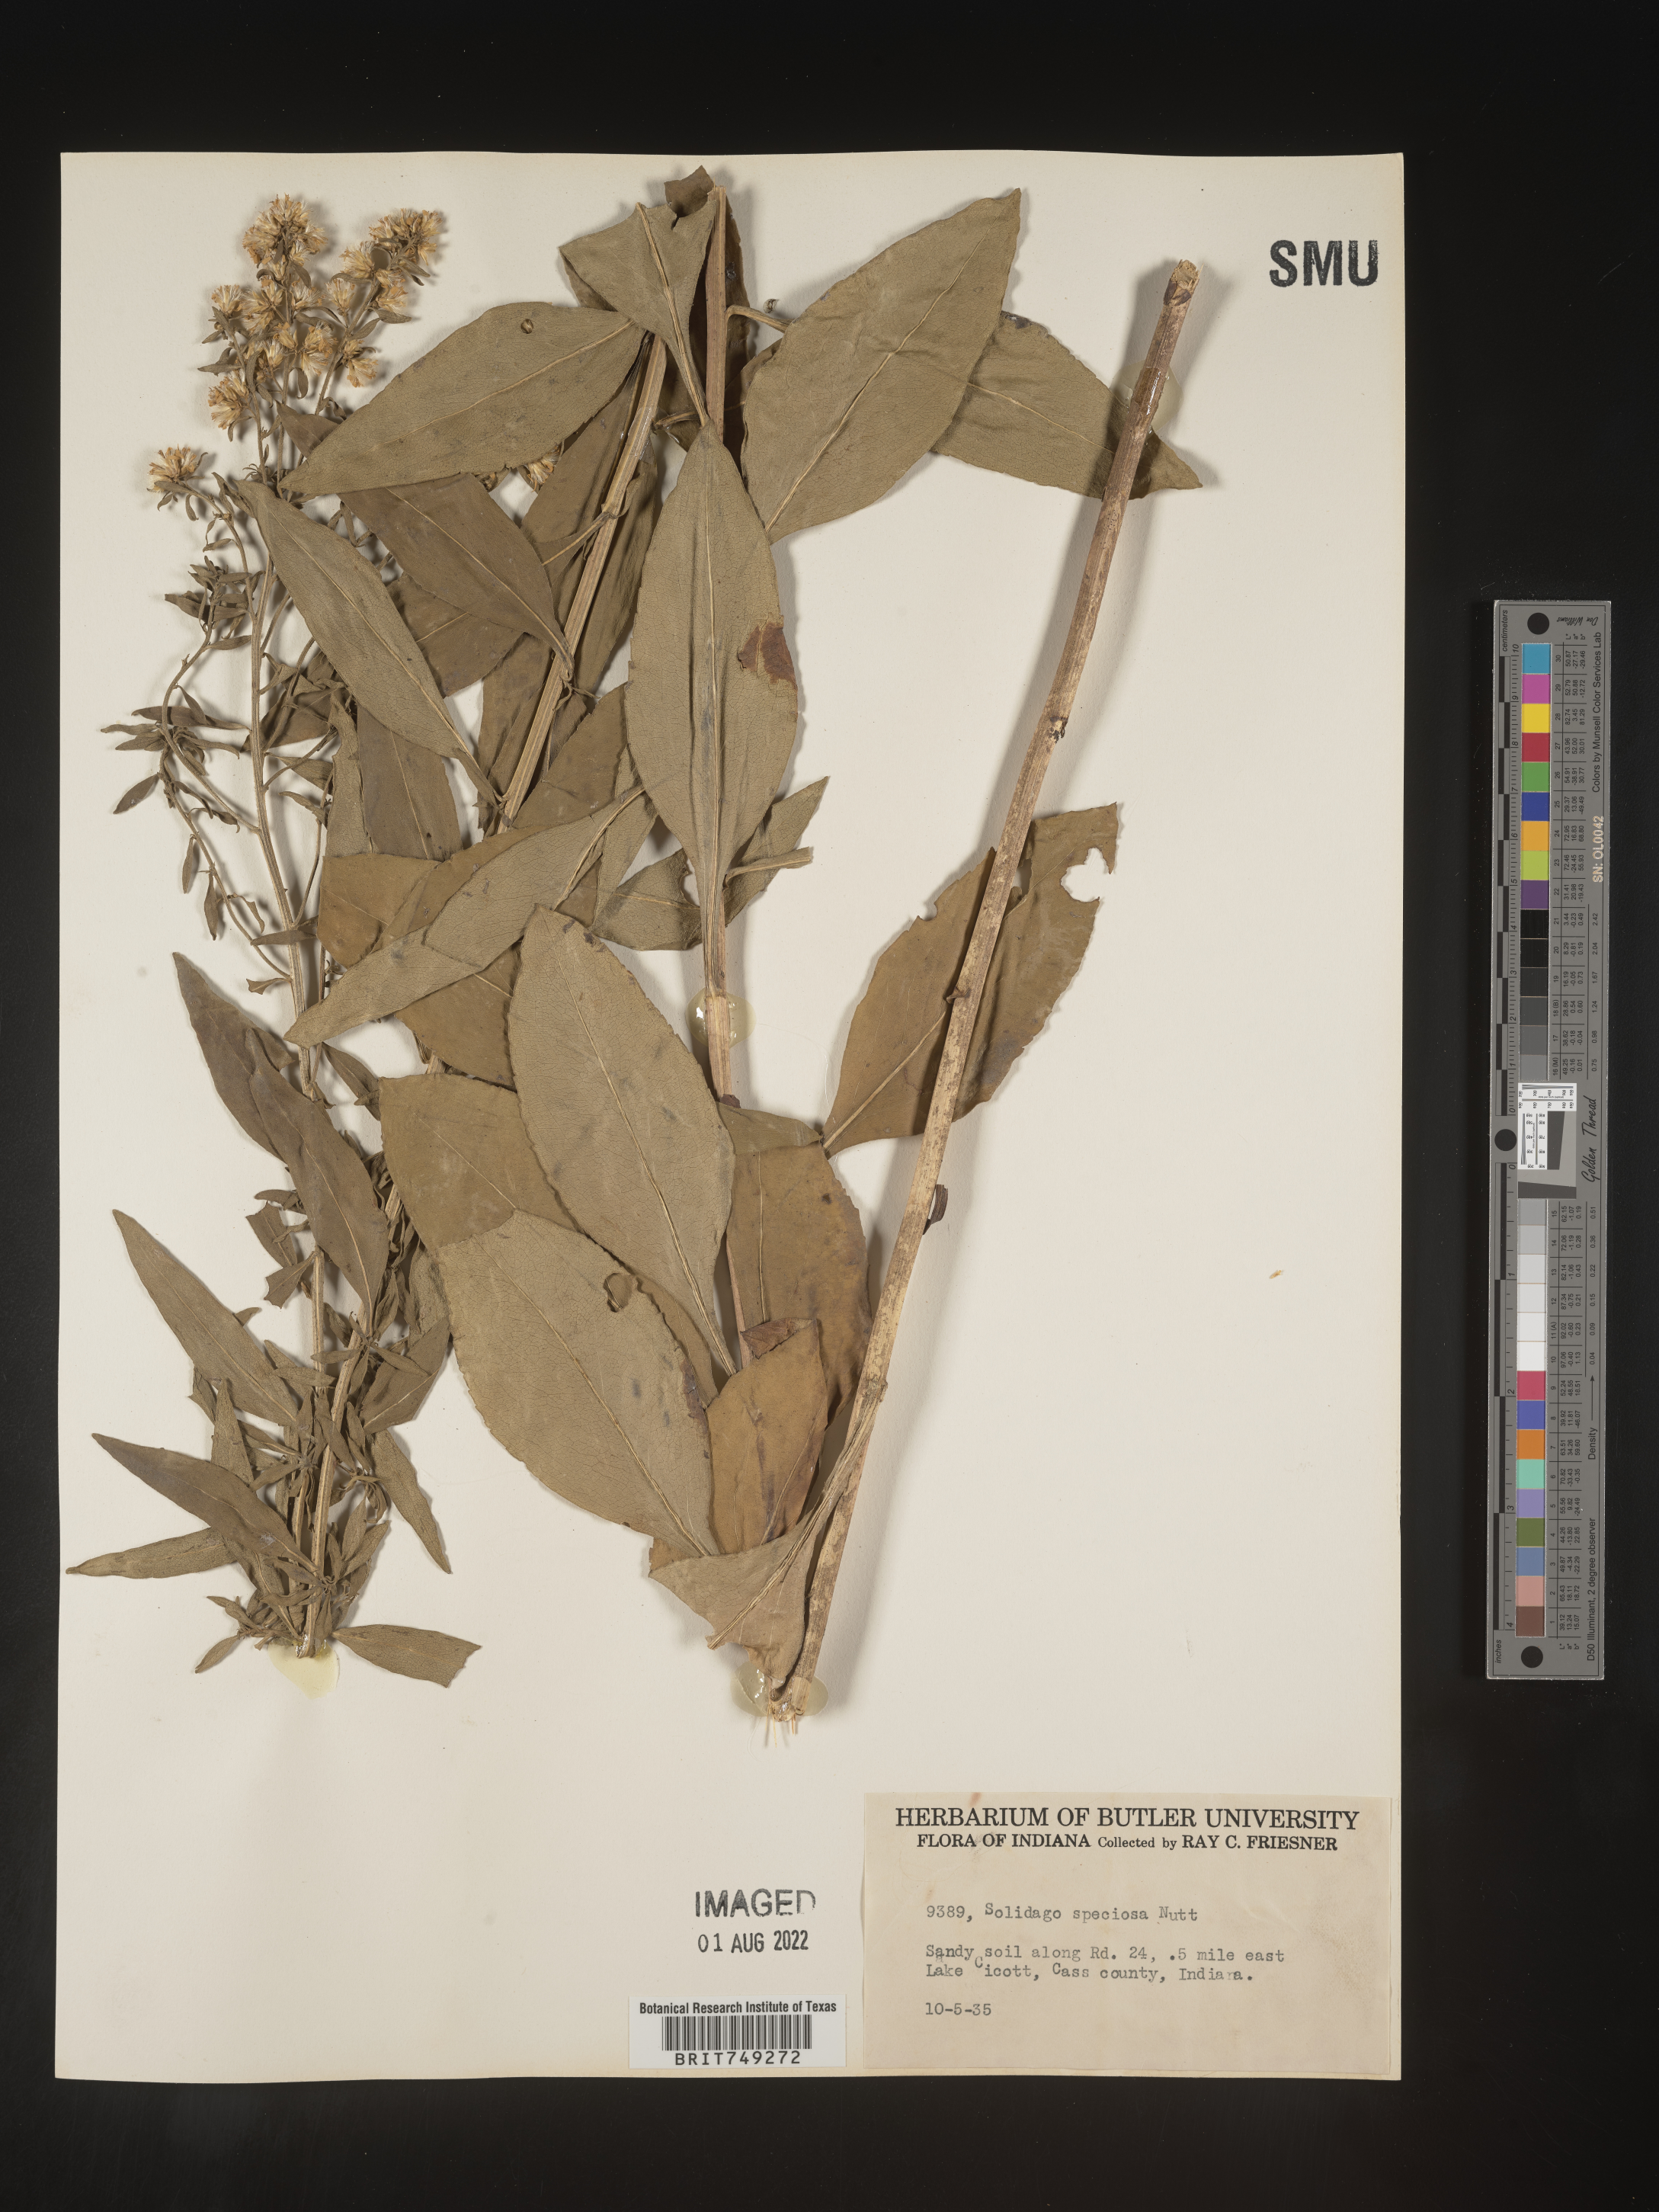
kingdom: Plantae
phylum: Tracheophyta
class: Magnoliopsida
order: Asterales
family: Asteraceae
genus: Solidago
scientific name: Solidago speciosa
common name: Showy goldenrod
